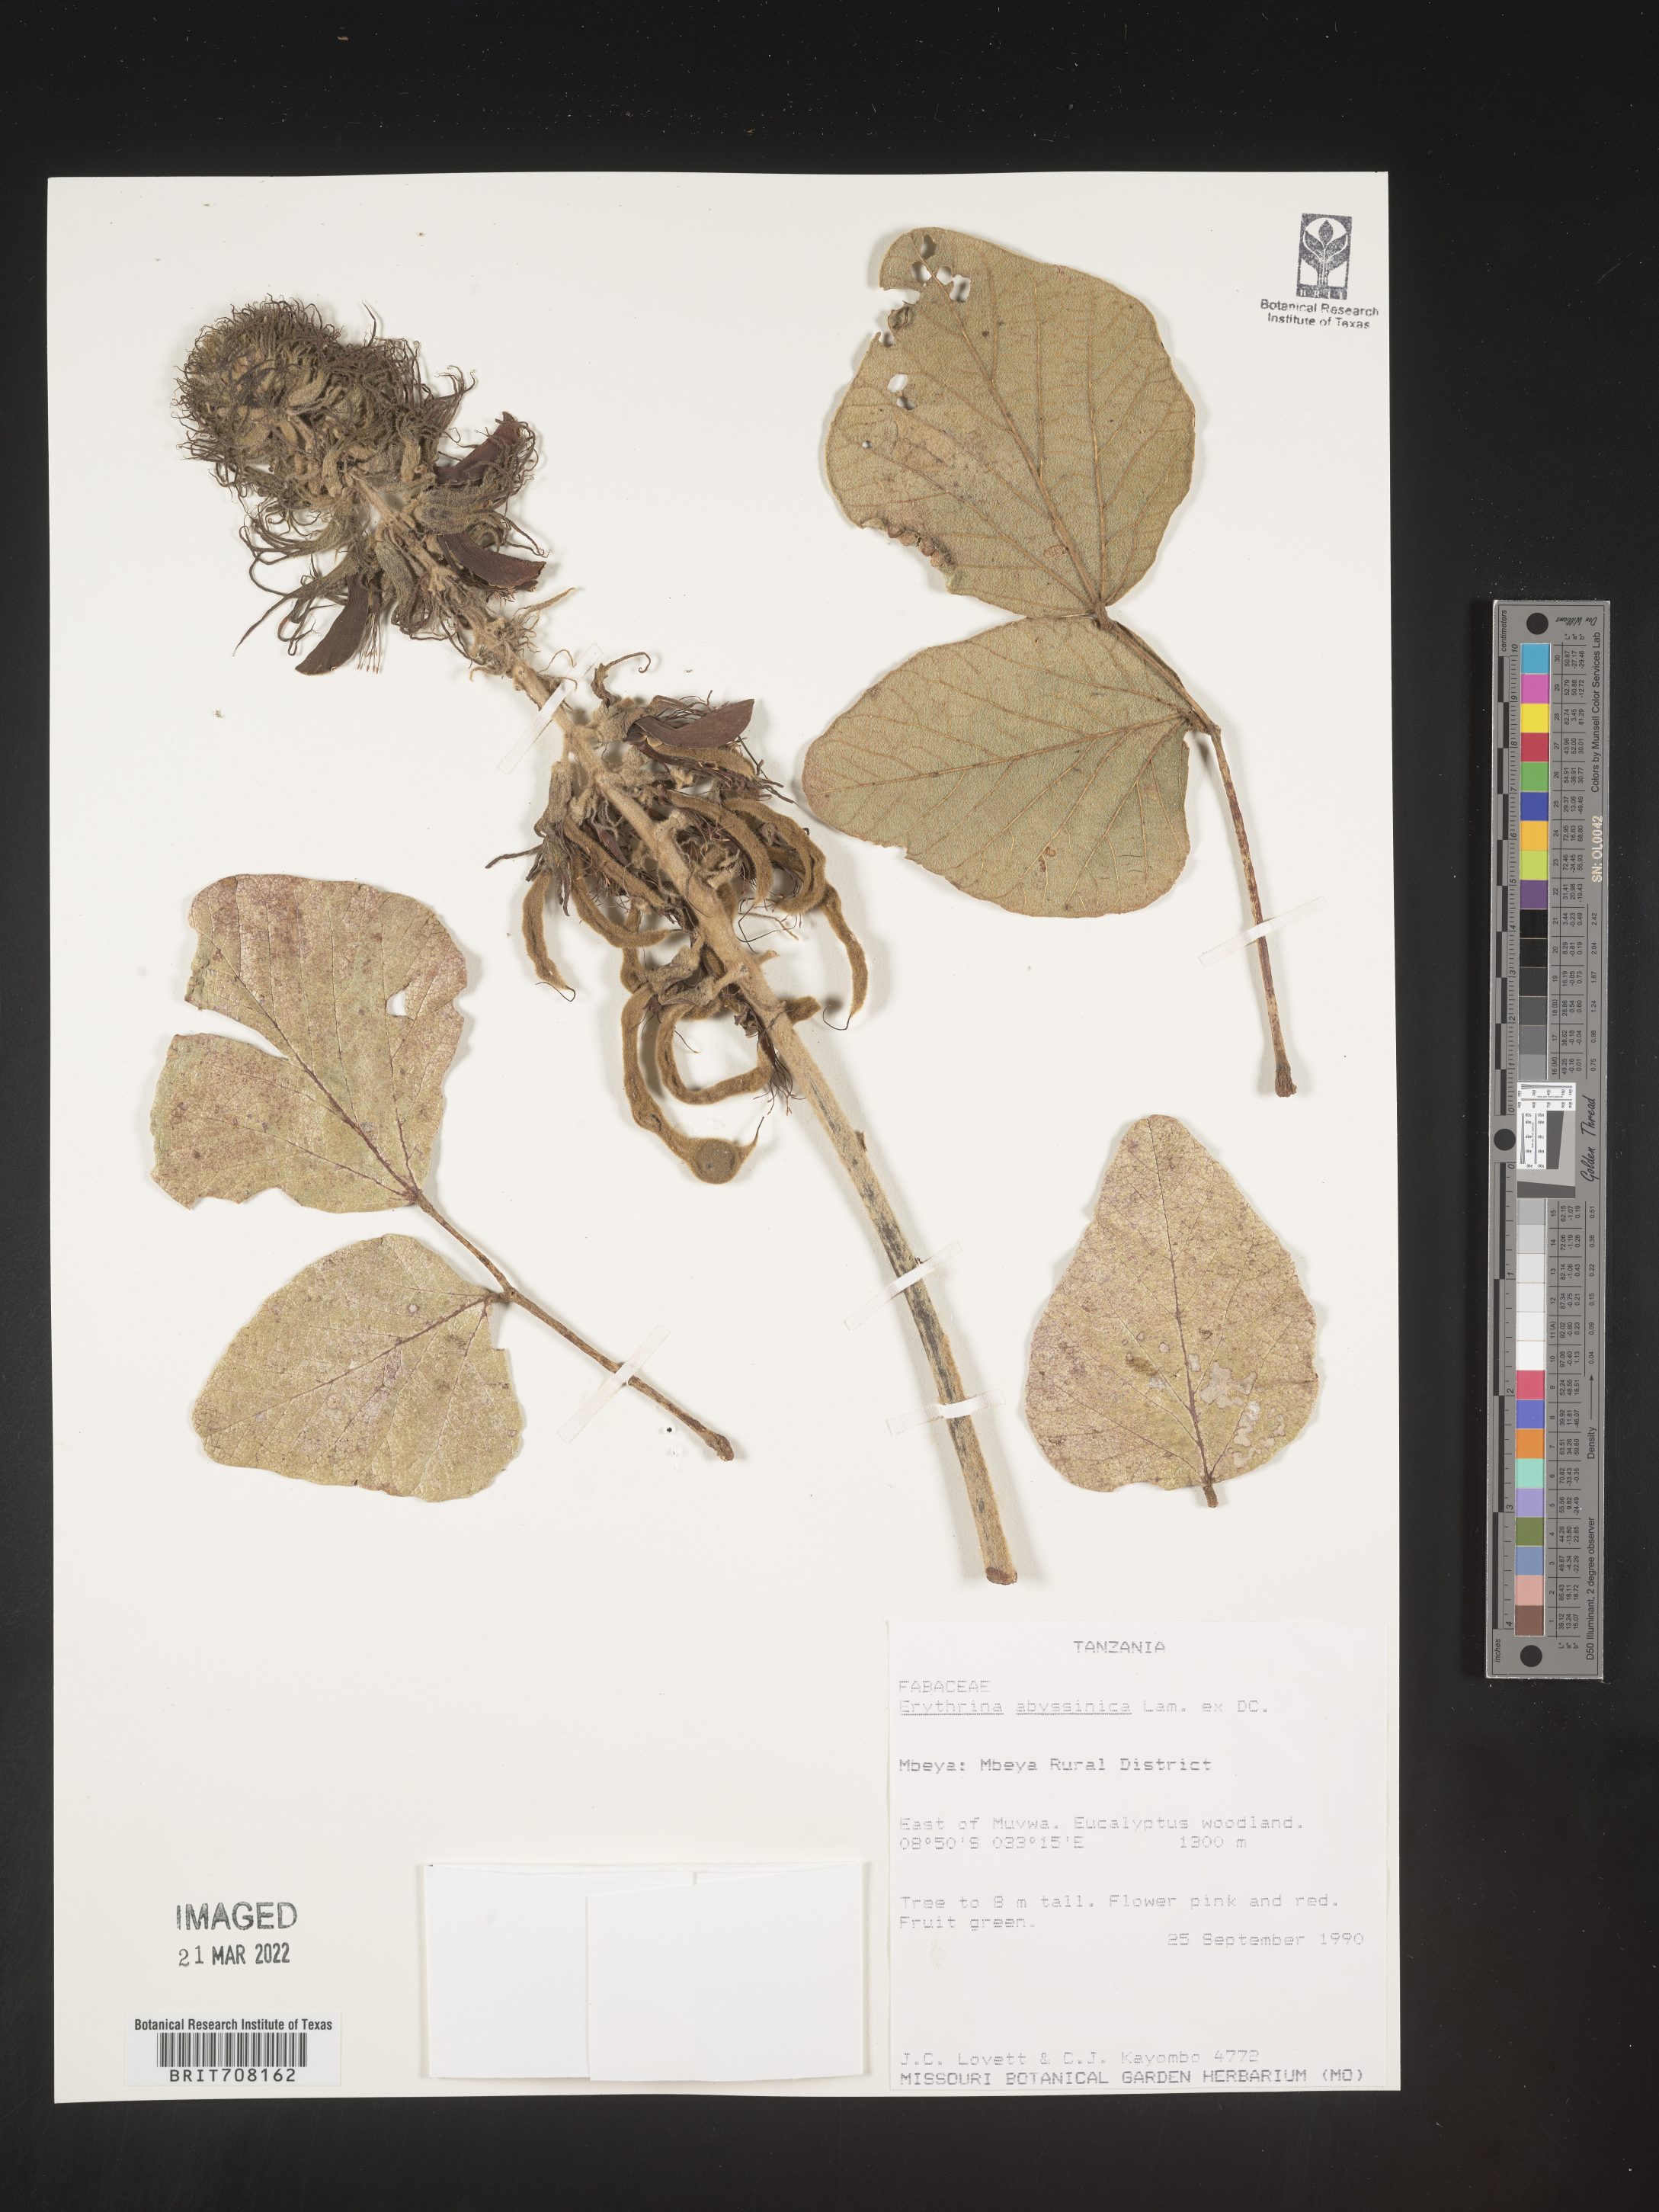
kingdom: Plantae
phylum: Tracheophyta
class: Magnoliopsida
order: Fabales
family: Fabaceae
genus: Erythrina
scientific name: Erythrina
